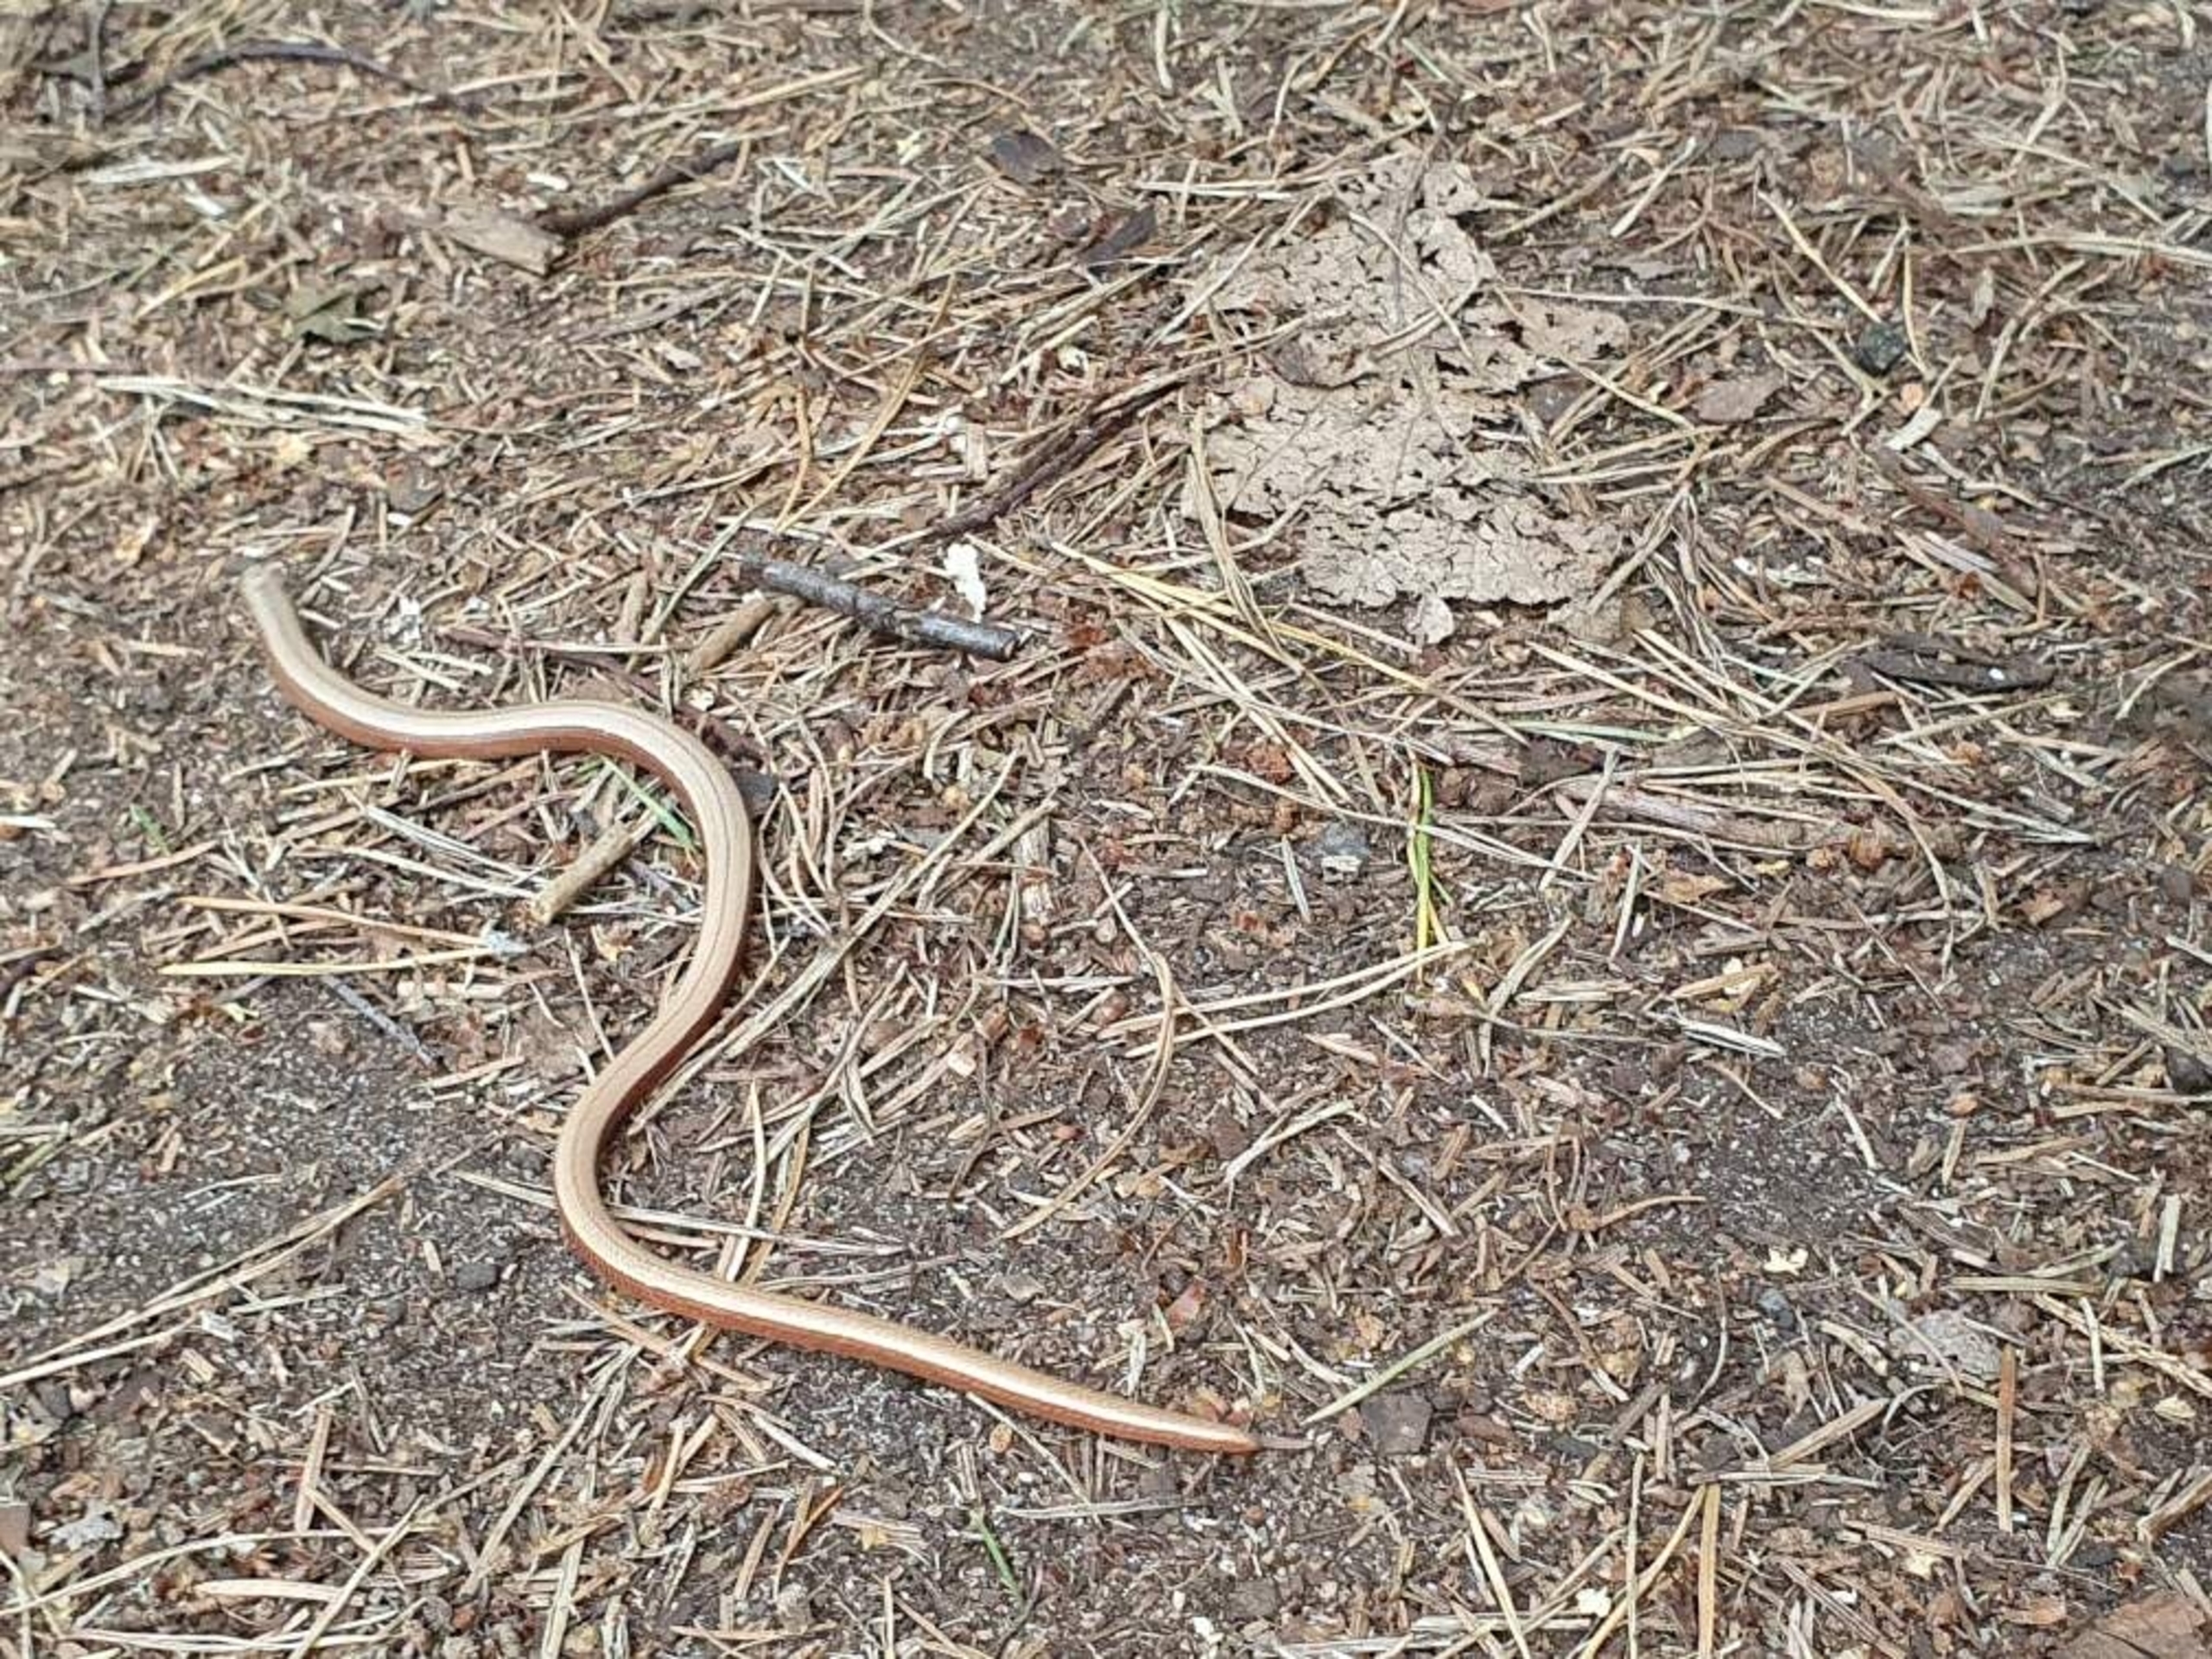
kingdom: Animalia
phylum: Chordata
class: Squamata
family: Anguidae
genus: Anguis
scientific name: Anguis fragilis
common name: Stålorm
